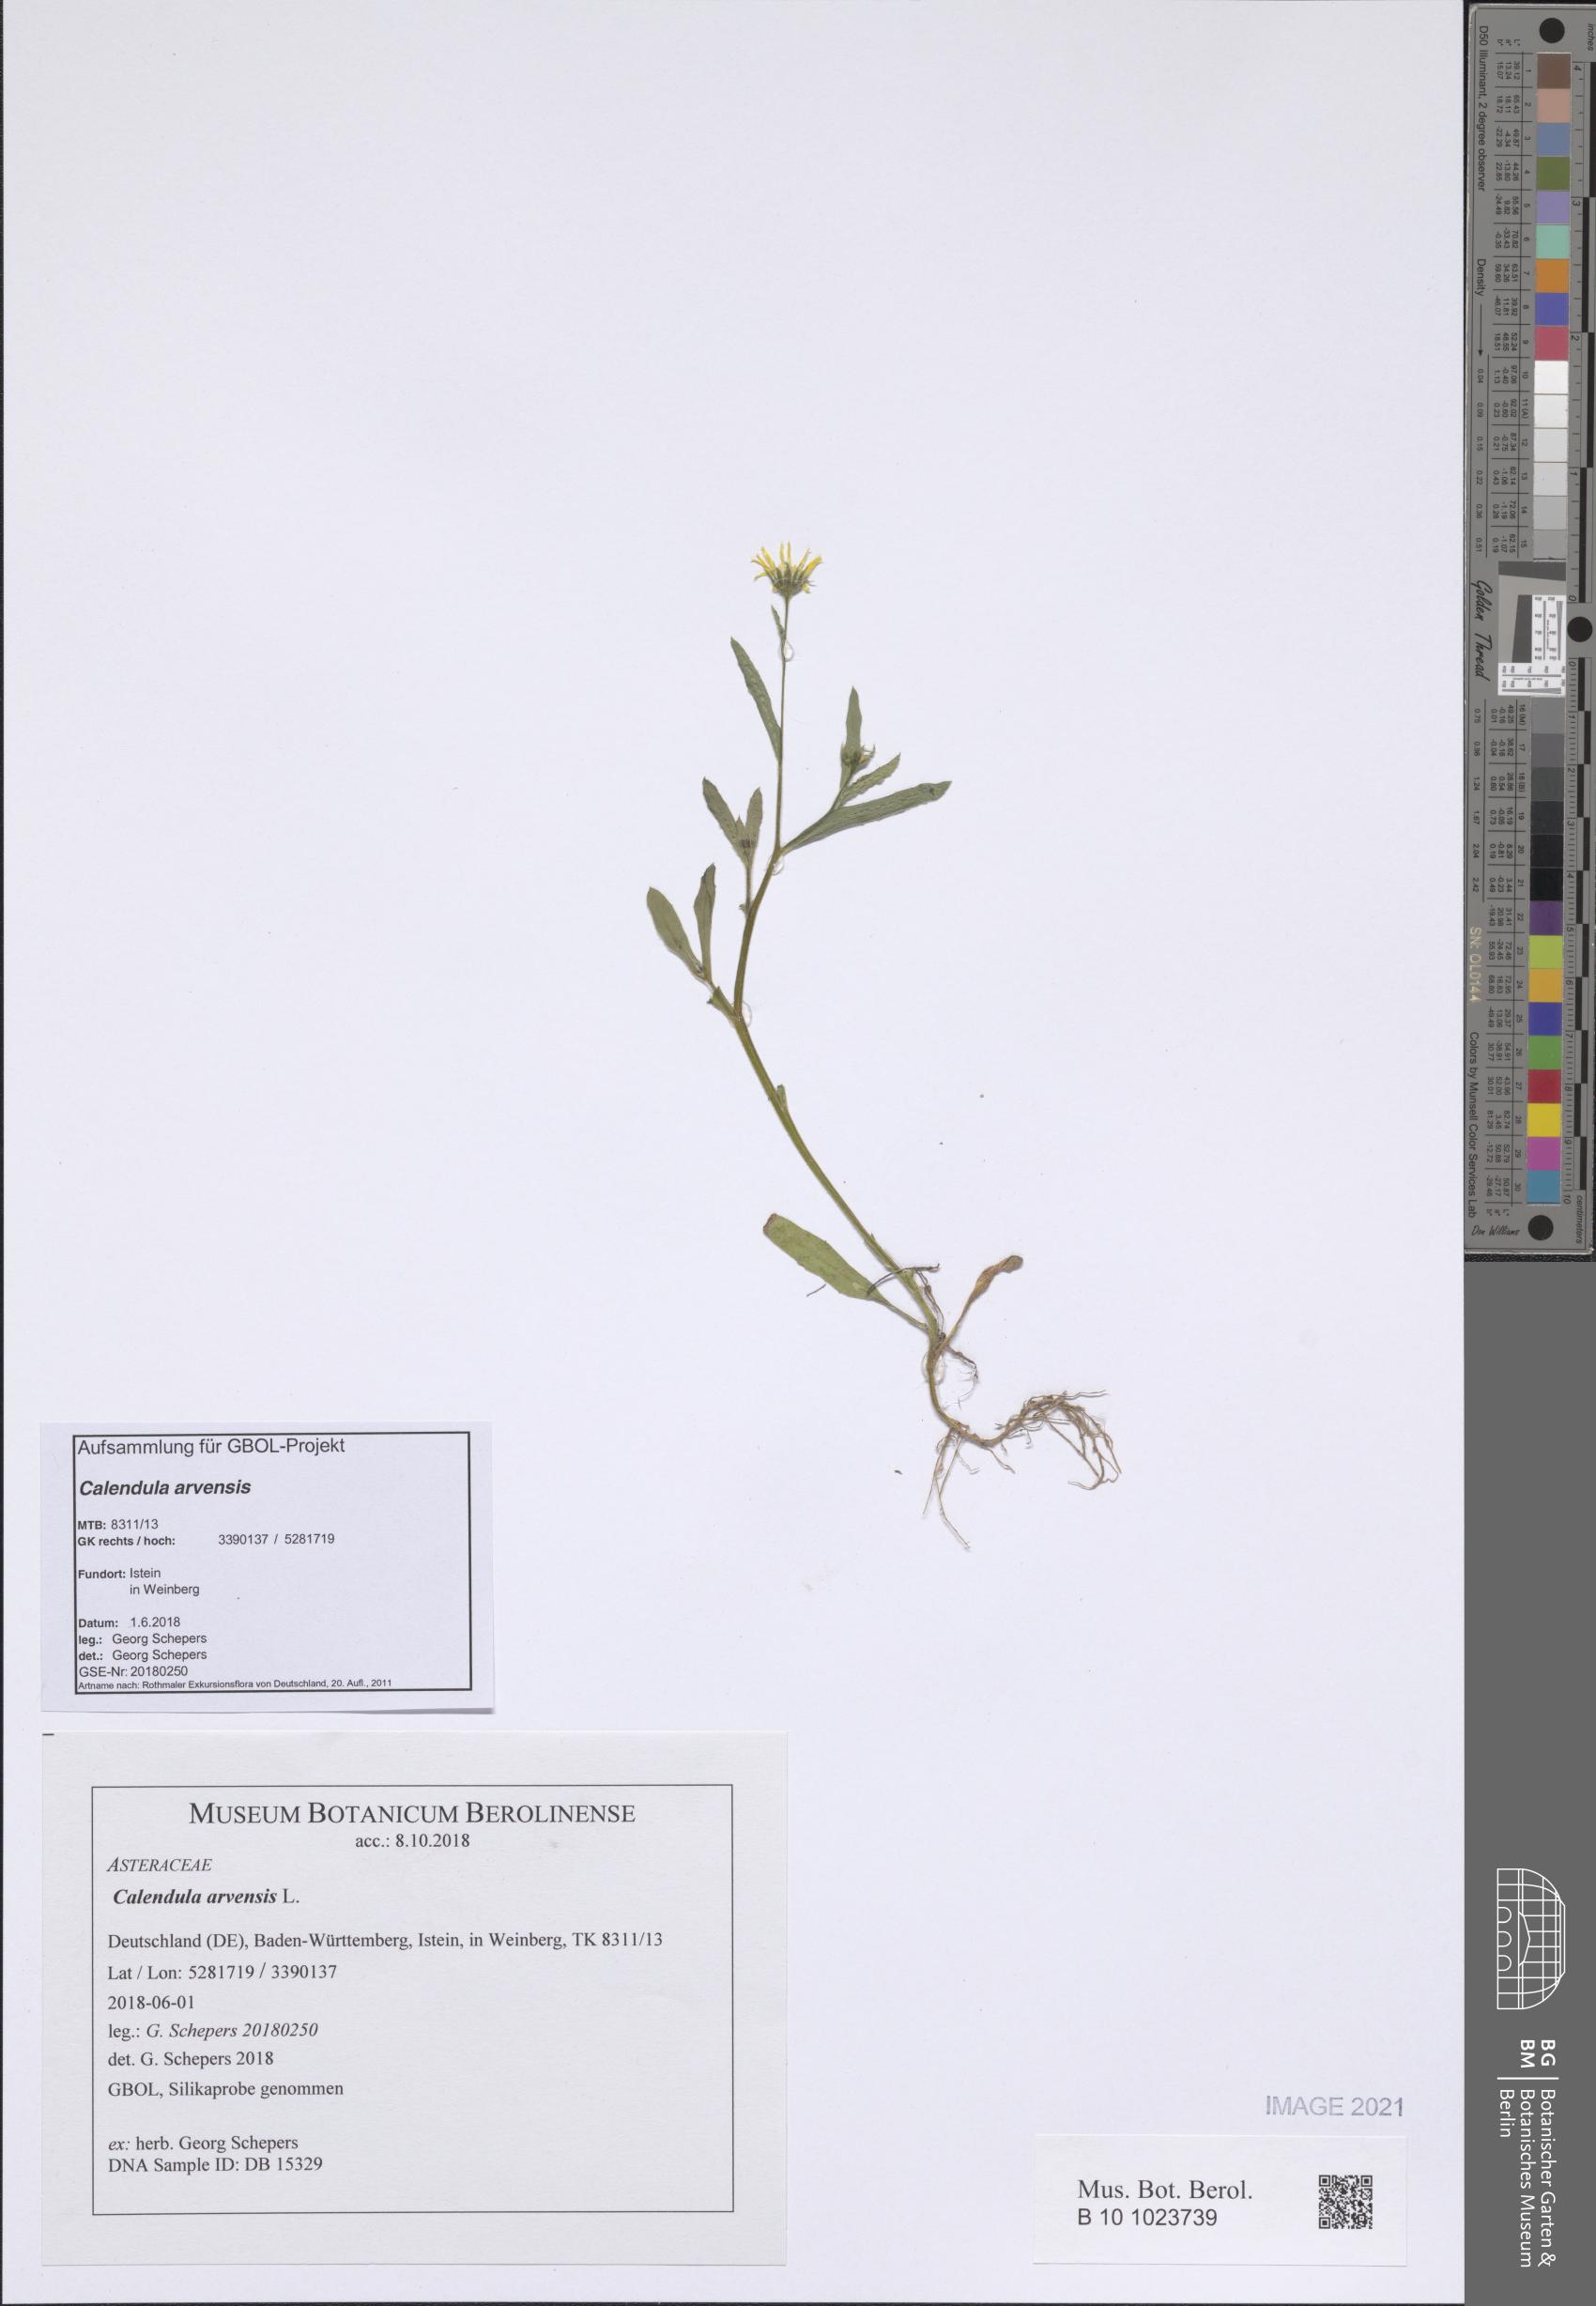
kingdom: Plantae
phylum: Tracheophyta
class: Magnoliopsida
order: Asterales
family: Asteraceae
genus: Calendula
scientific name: Calendula arvensis
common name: Field marigold
